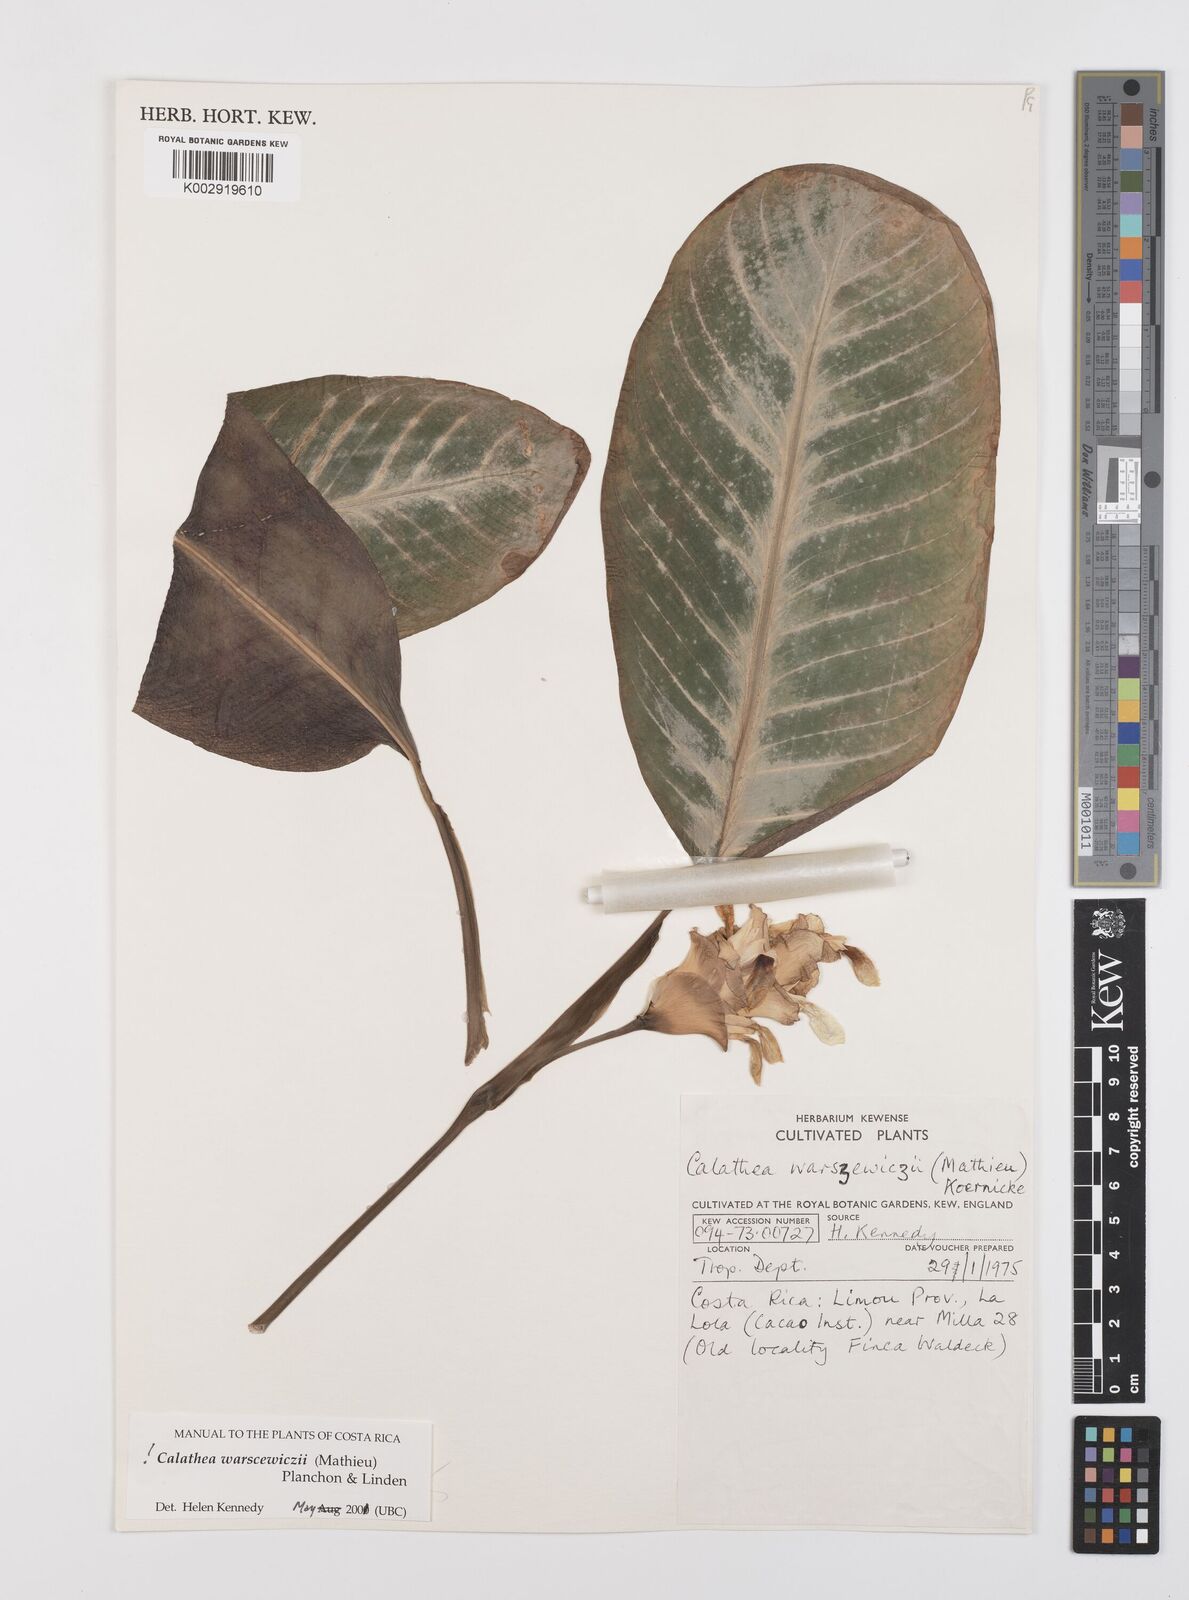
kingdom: Plantae
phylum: Tracheophyta
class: Liliopsida
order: Zingiberales
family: Marantaceae
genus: Goeppertia
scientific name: Goeppertia warszewiczii
